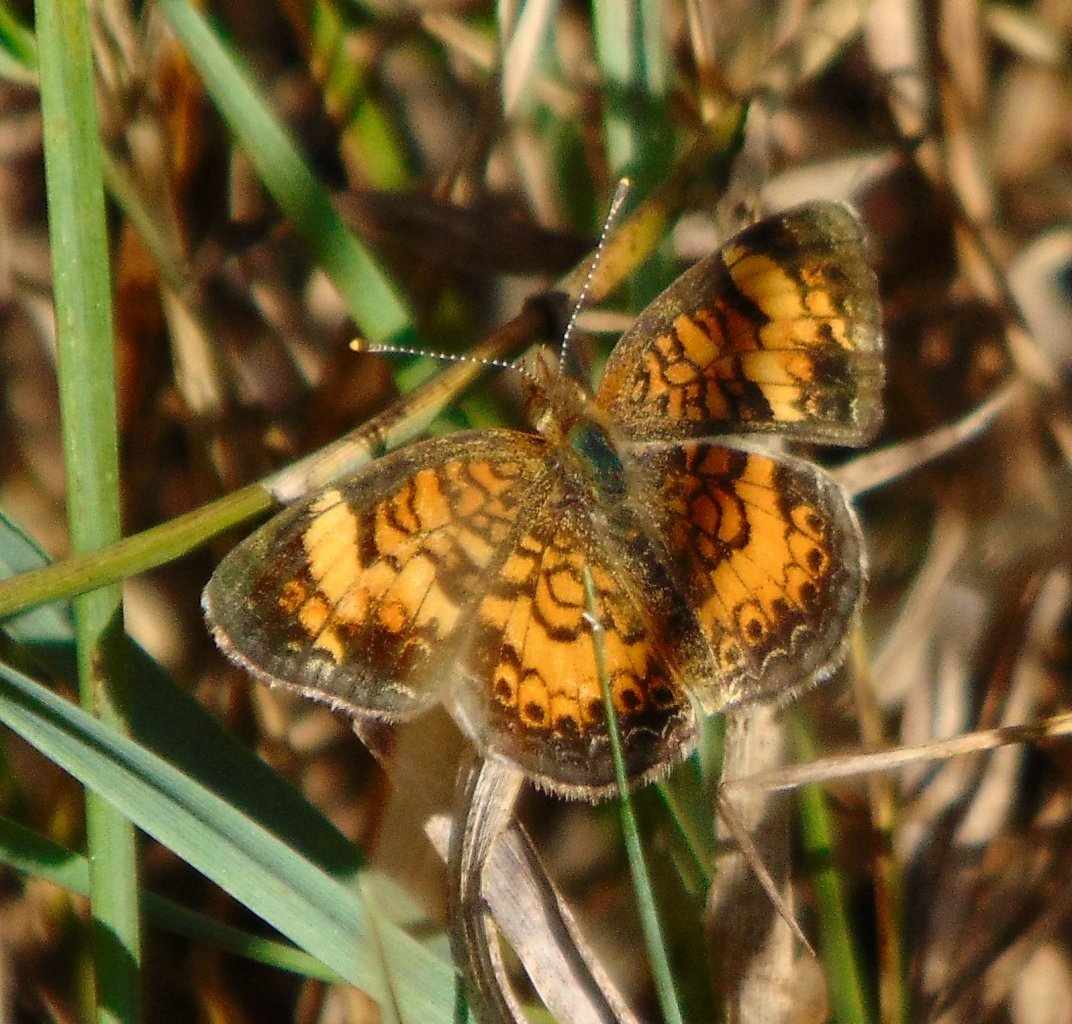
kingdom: Animalia
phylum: Arthropoda
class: Insecta
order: Lepidoptera
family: Nymphalidae
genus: Phyciodes
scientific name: Phyciodes tharos
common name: Pearl Crescent
